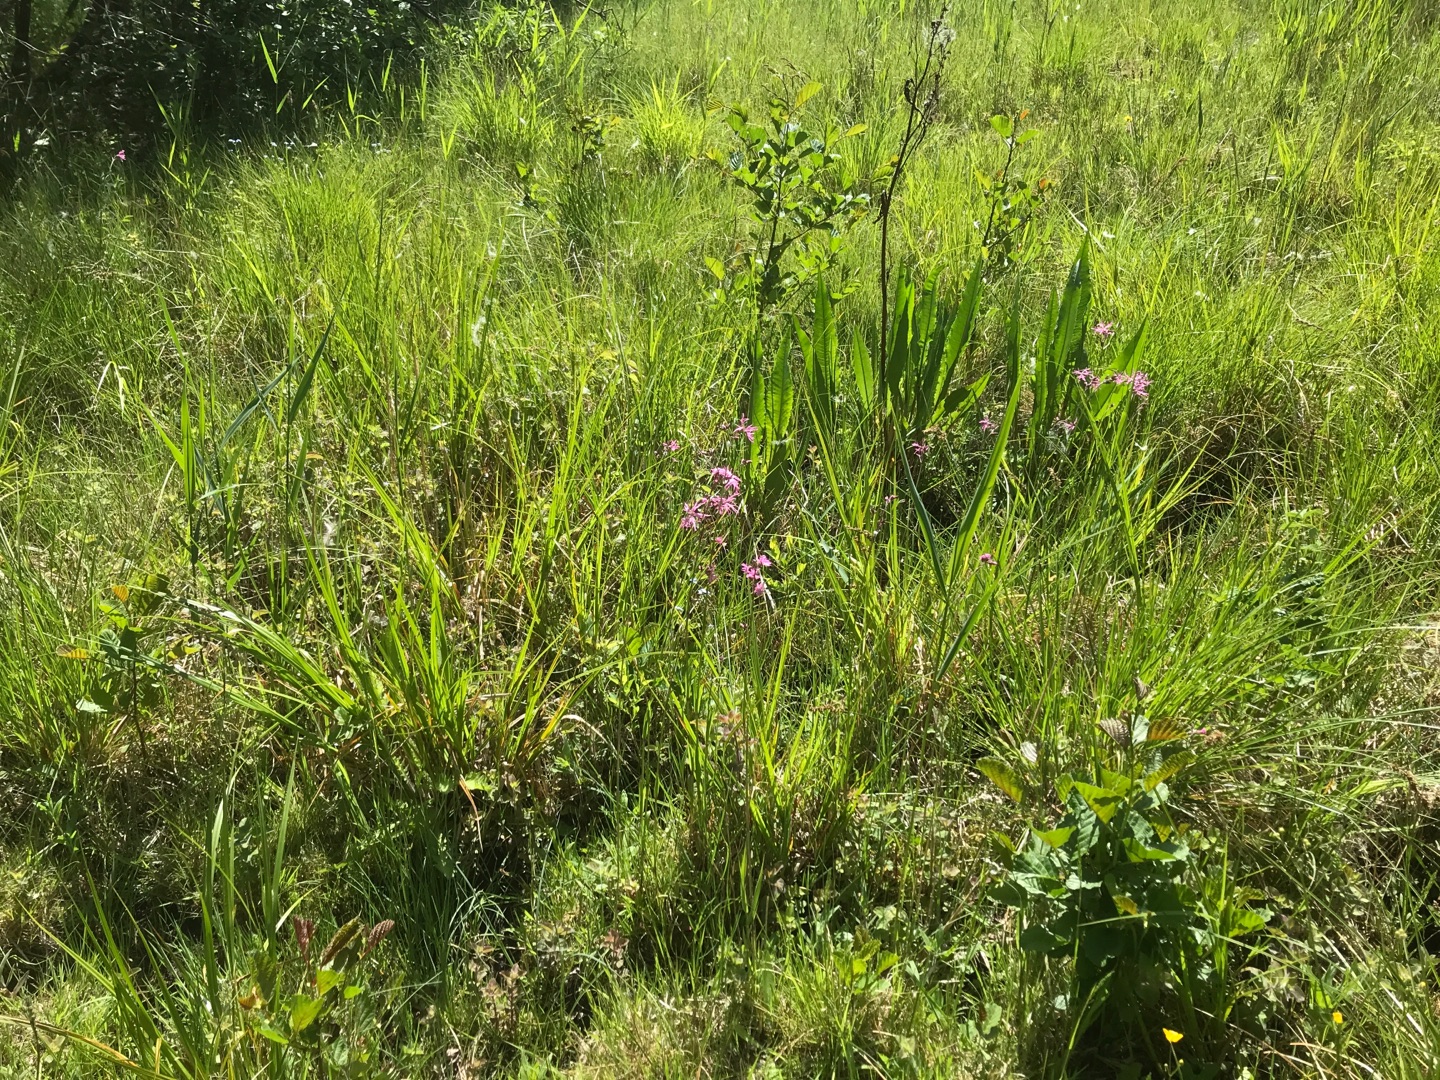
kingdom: Plantae
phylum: Tracheophyta
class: Magnoliopsida
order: Caryophyllales
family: Caryophyllaceae
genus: Silene
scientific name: Silene flos-cuculi
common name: Trævlekrone
